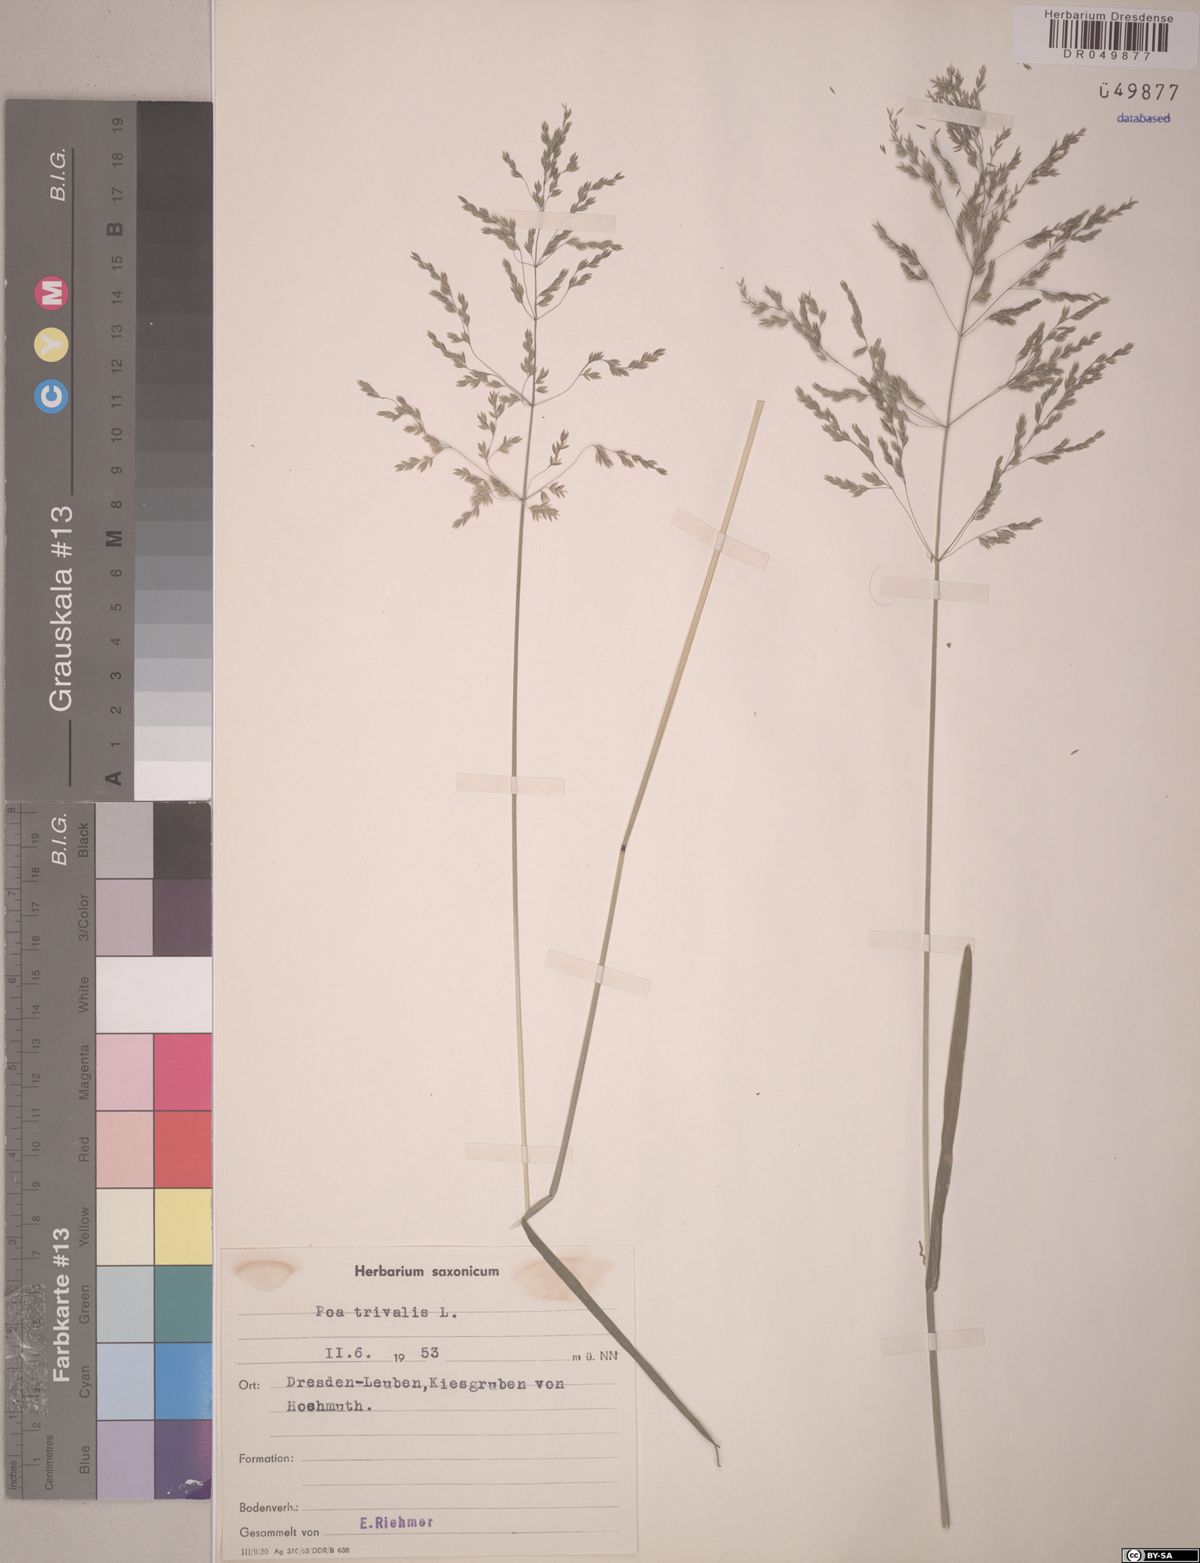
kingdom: Plantae
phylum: Tracheophyta
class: Liliopsida
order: Poales
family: Poaceae
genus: Poa
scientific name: Poa trivialis
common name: Rough bluegrass
